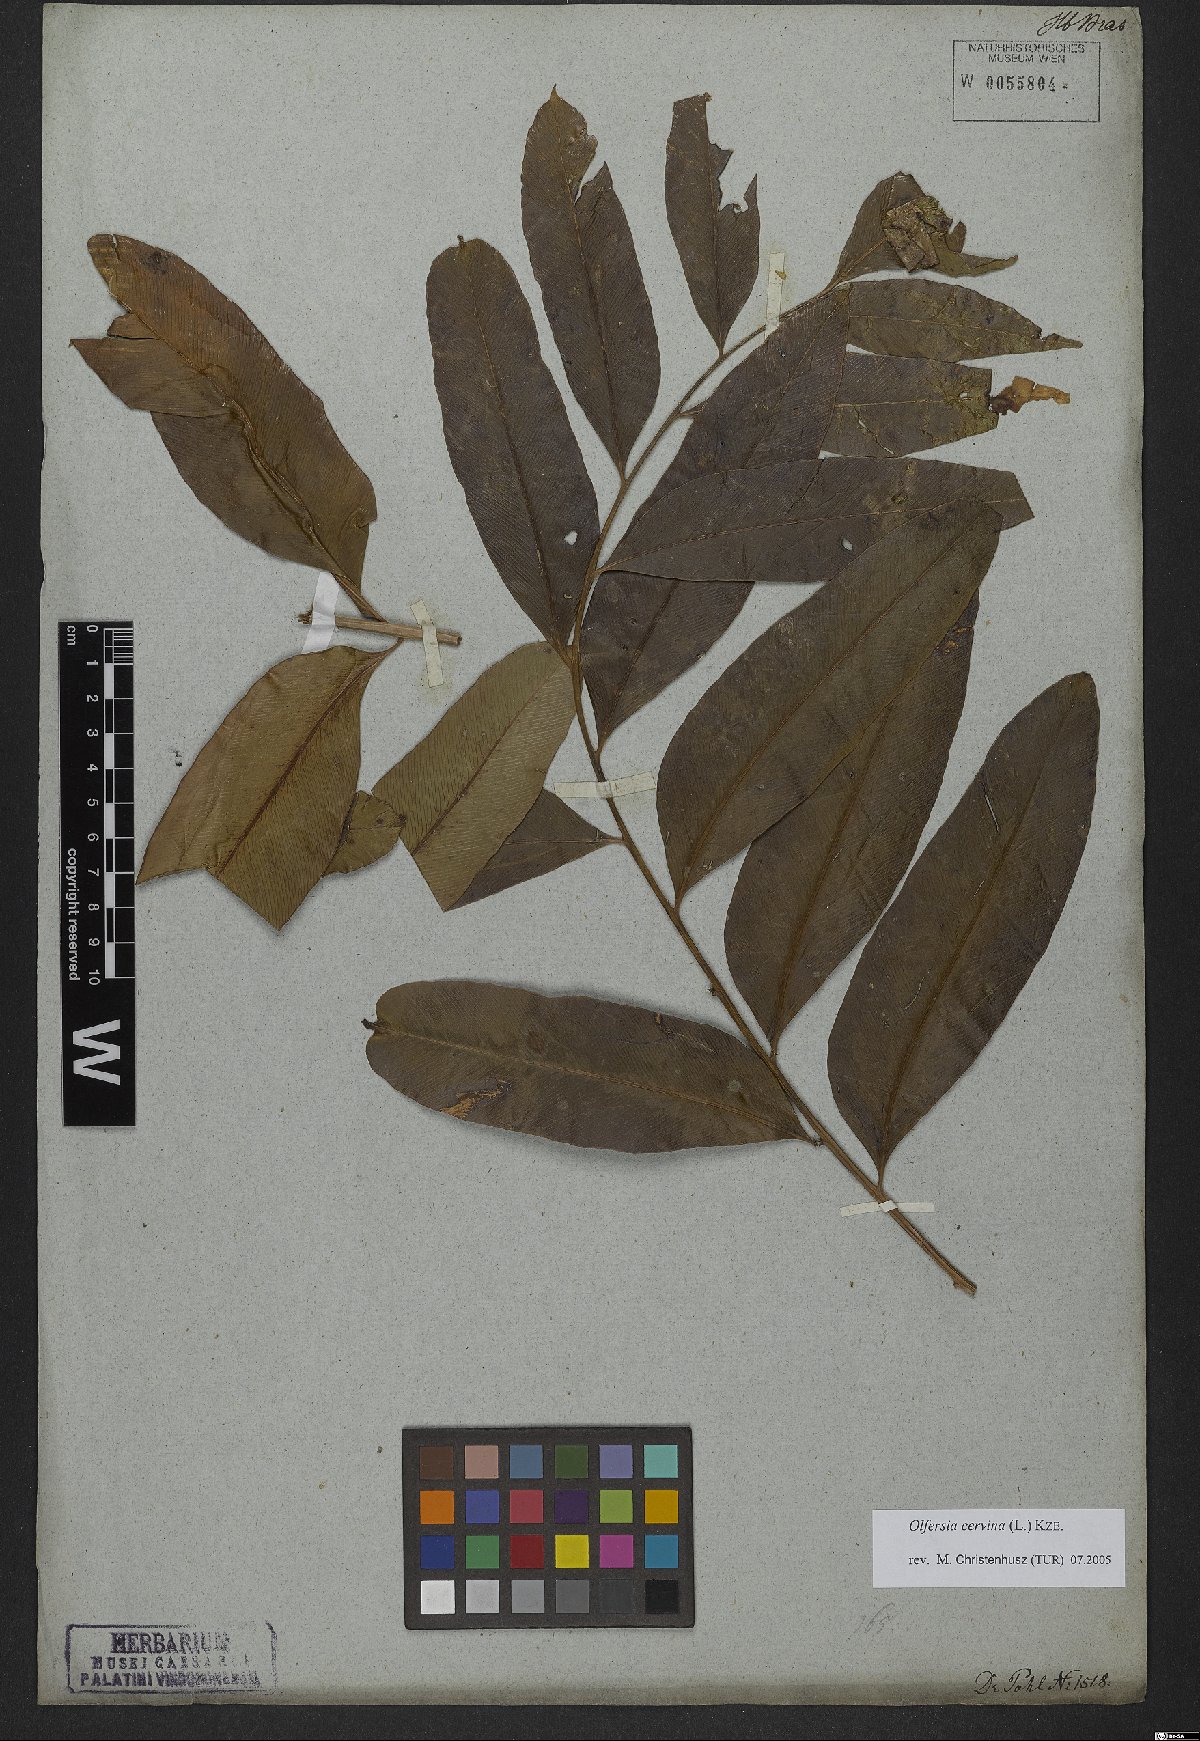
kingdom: Plantae
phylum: Tracheophyta
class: Polypodiopsida
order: Polypodiales
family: Dryopteridaceae
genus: Olfersia
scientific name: Olfersia cervina
